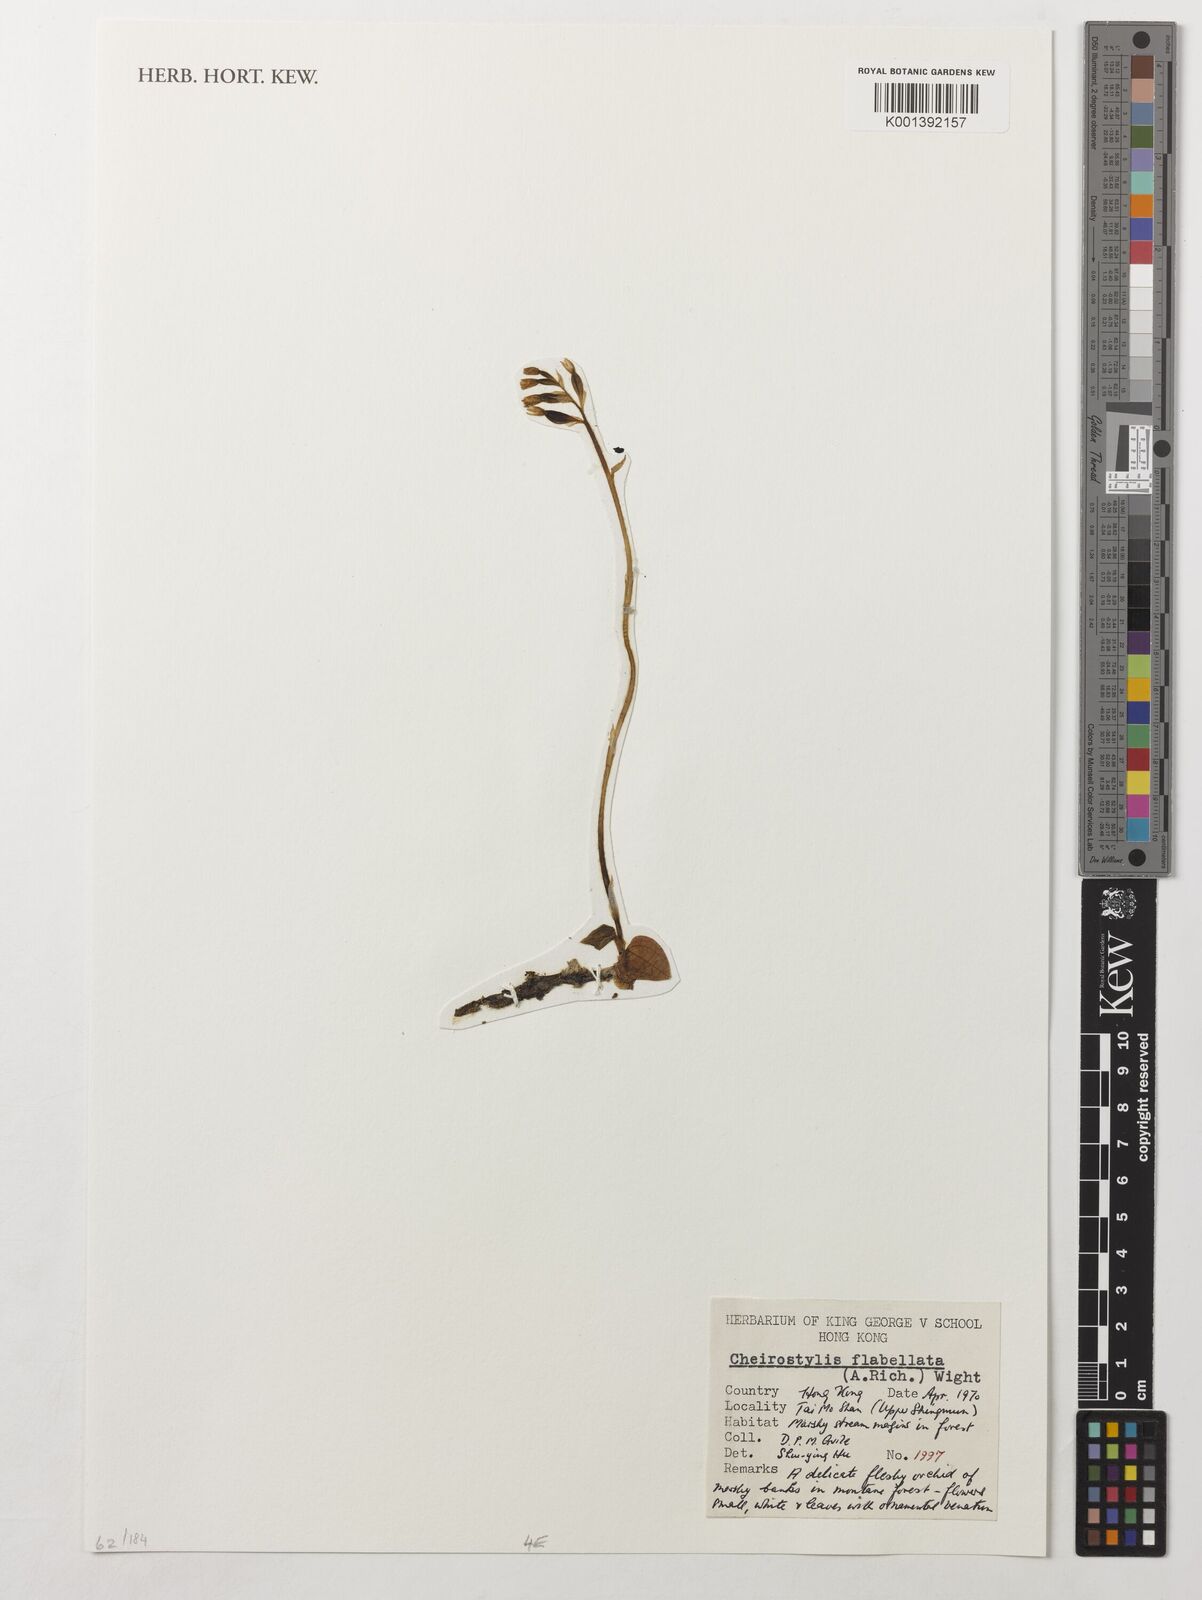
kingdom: Plantae
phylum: Tracheophyta
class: Liliopsida
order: Asparagales
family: Orchidaceae
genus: Cheirostylis
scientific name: Cheirostylis flabellata
